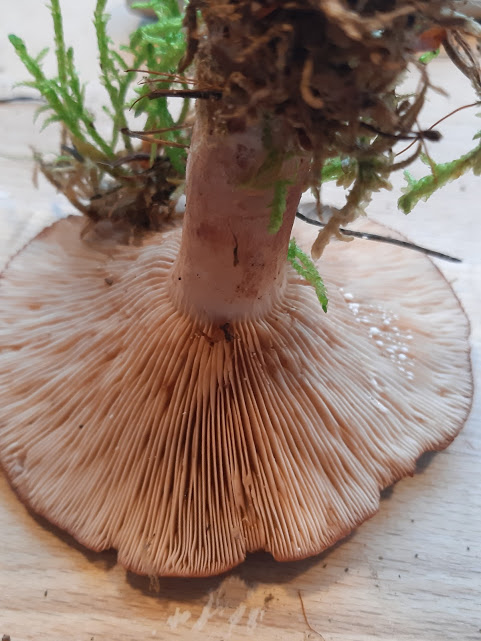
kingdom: Fungi
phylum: Basidiomycota
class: Agaricomycetes
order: Russulales
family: Russulaceae
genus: Lactarius
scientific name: Lactarius rufus
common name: rødbrun mælkehat
